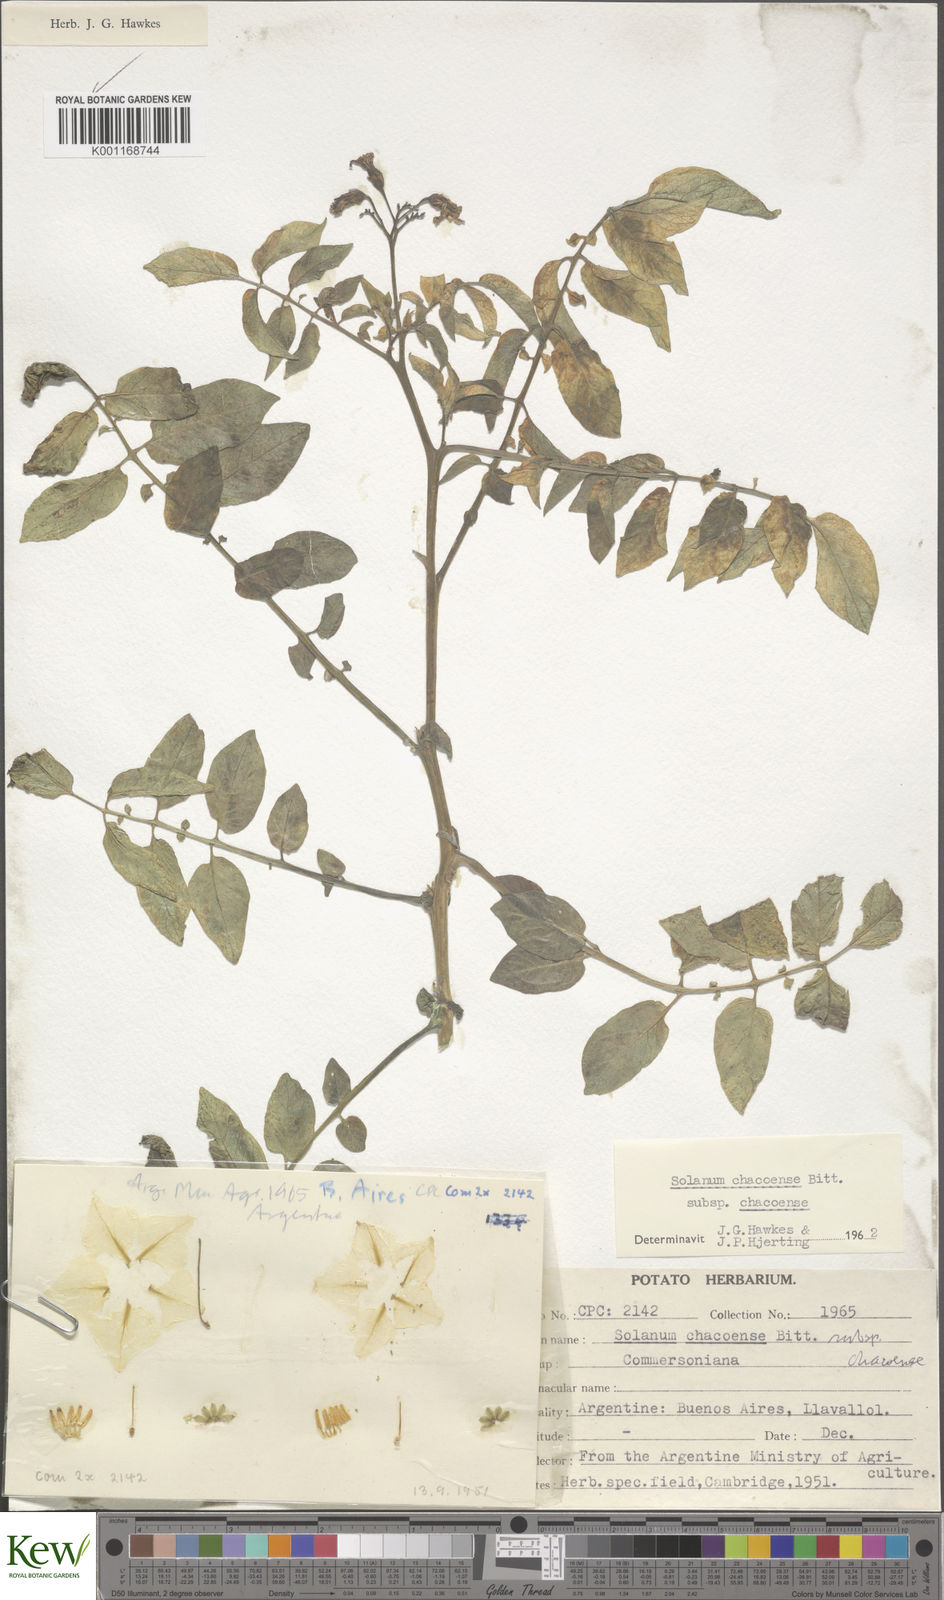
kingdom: Plantae
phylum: Tracheophyta
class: Magnoliopsida
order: Solanales
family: Solanaceae
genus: Solanum
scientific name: Solanum chacoense
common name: Chaco potato
